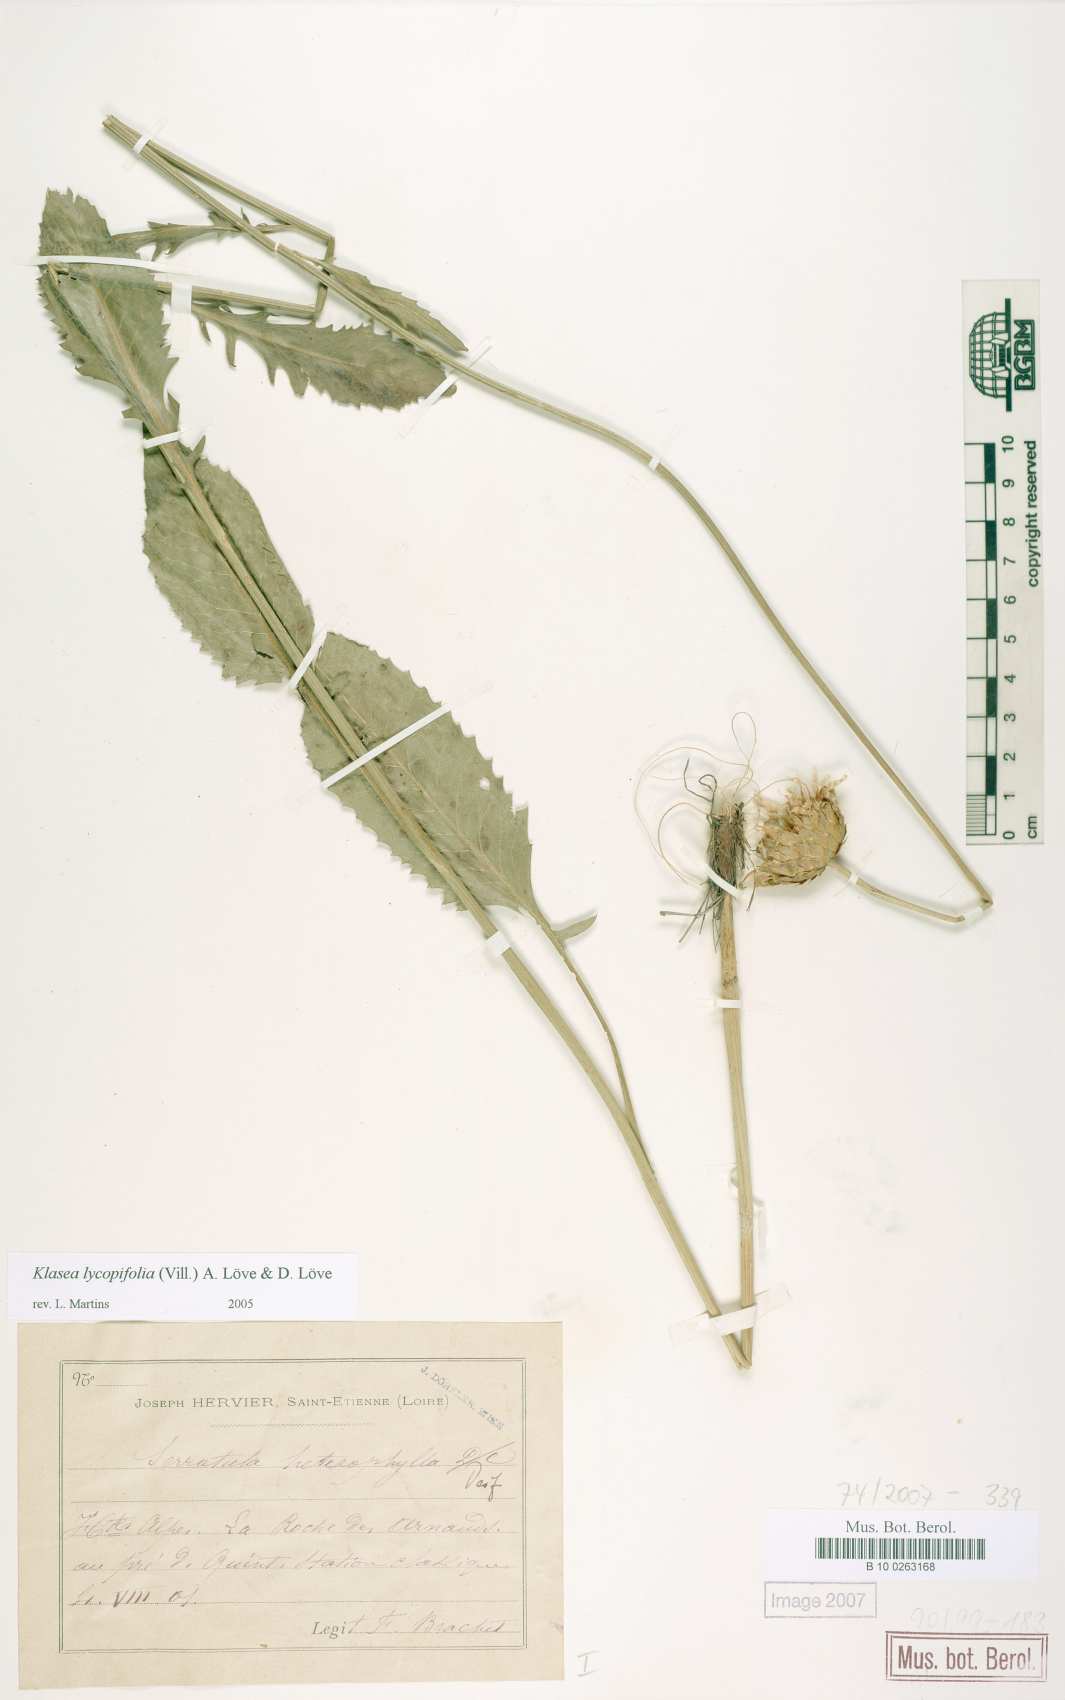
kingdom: Plantae
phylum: Tracheophyta
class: Magnoliopsida
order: Asterales
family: Asteraceae
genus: Klasea
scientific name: Klasea lycopifolia
